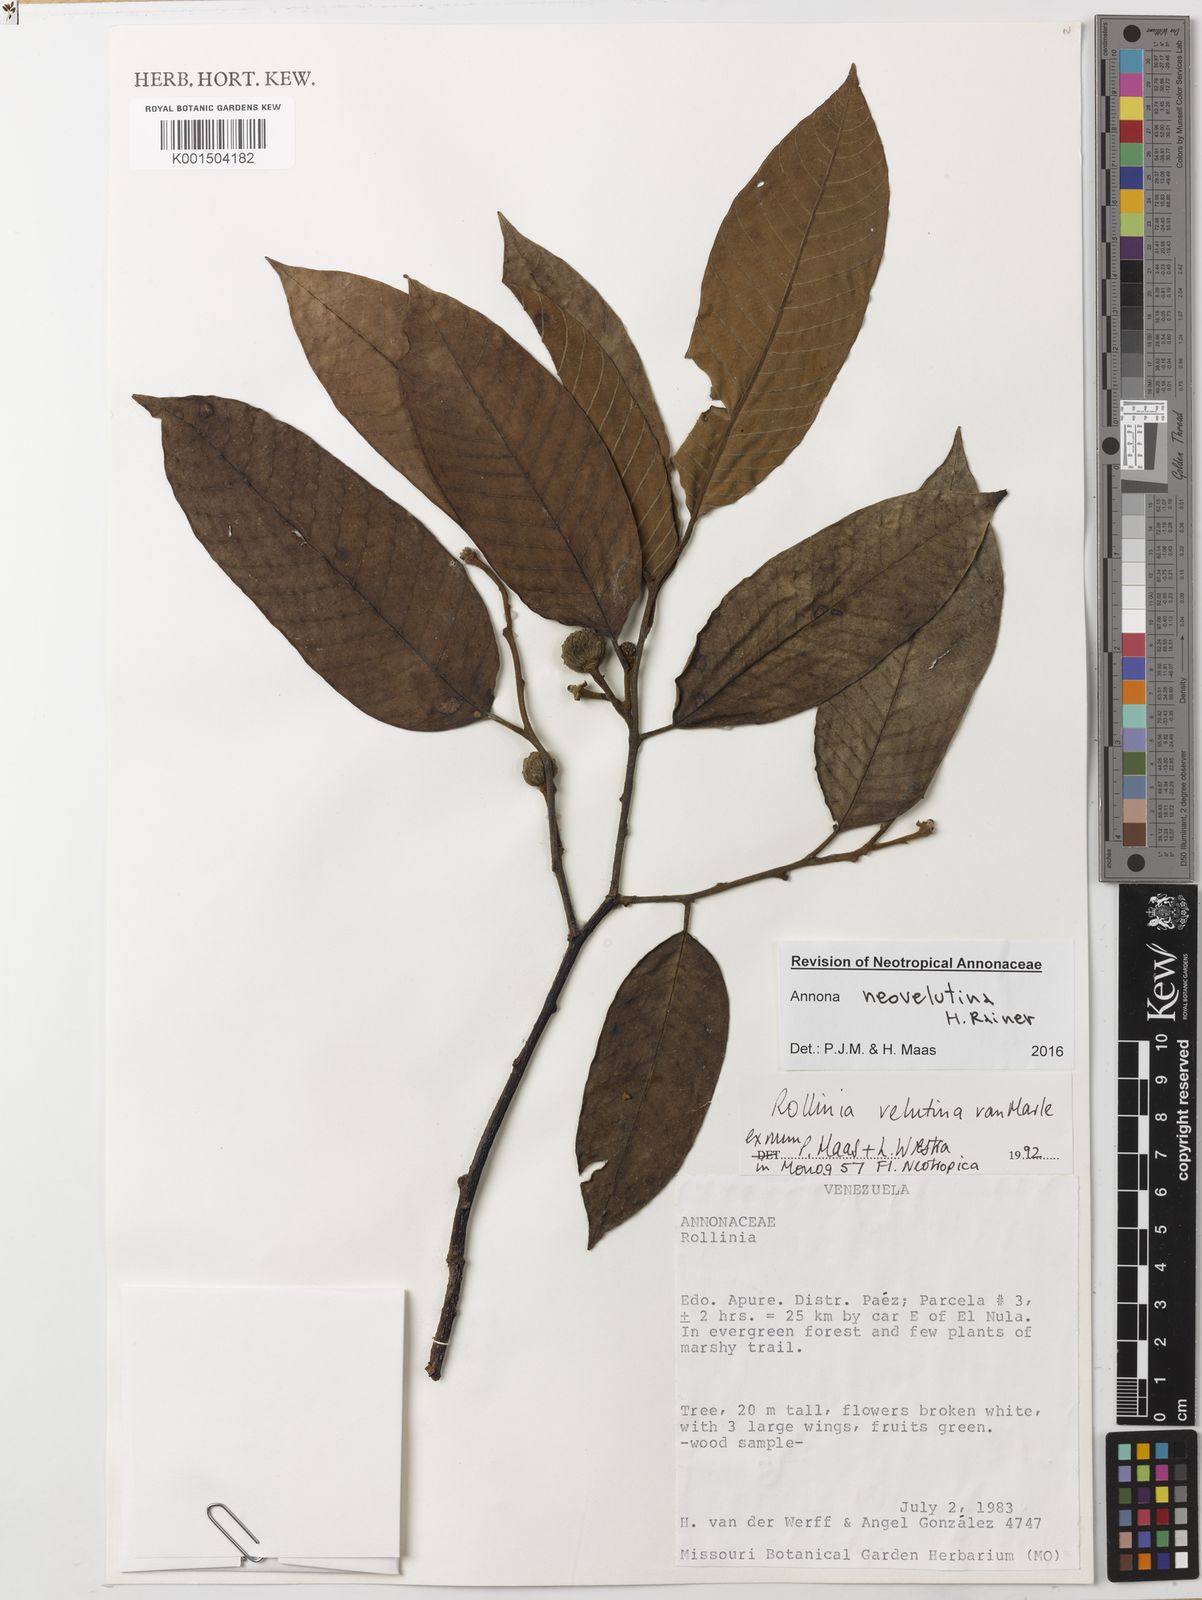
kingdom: Plantae
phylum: Tracheophyta
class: Magnoliopsida
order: Magnoliales
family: Annonaceae
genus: Annona
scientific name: Annona neovelutina
